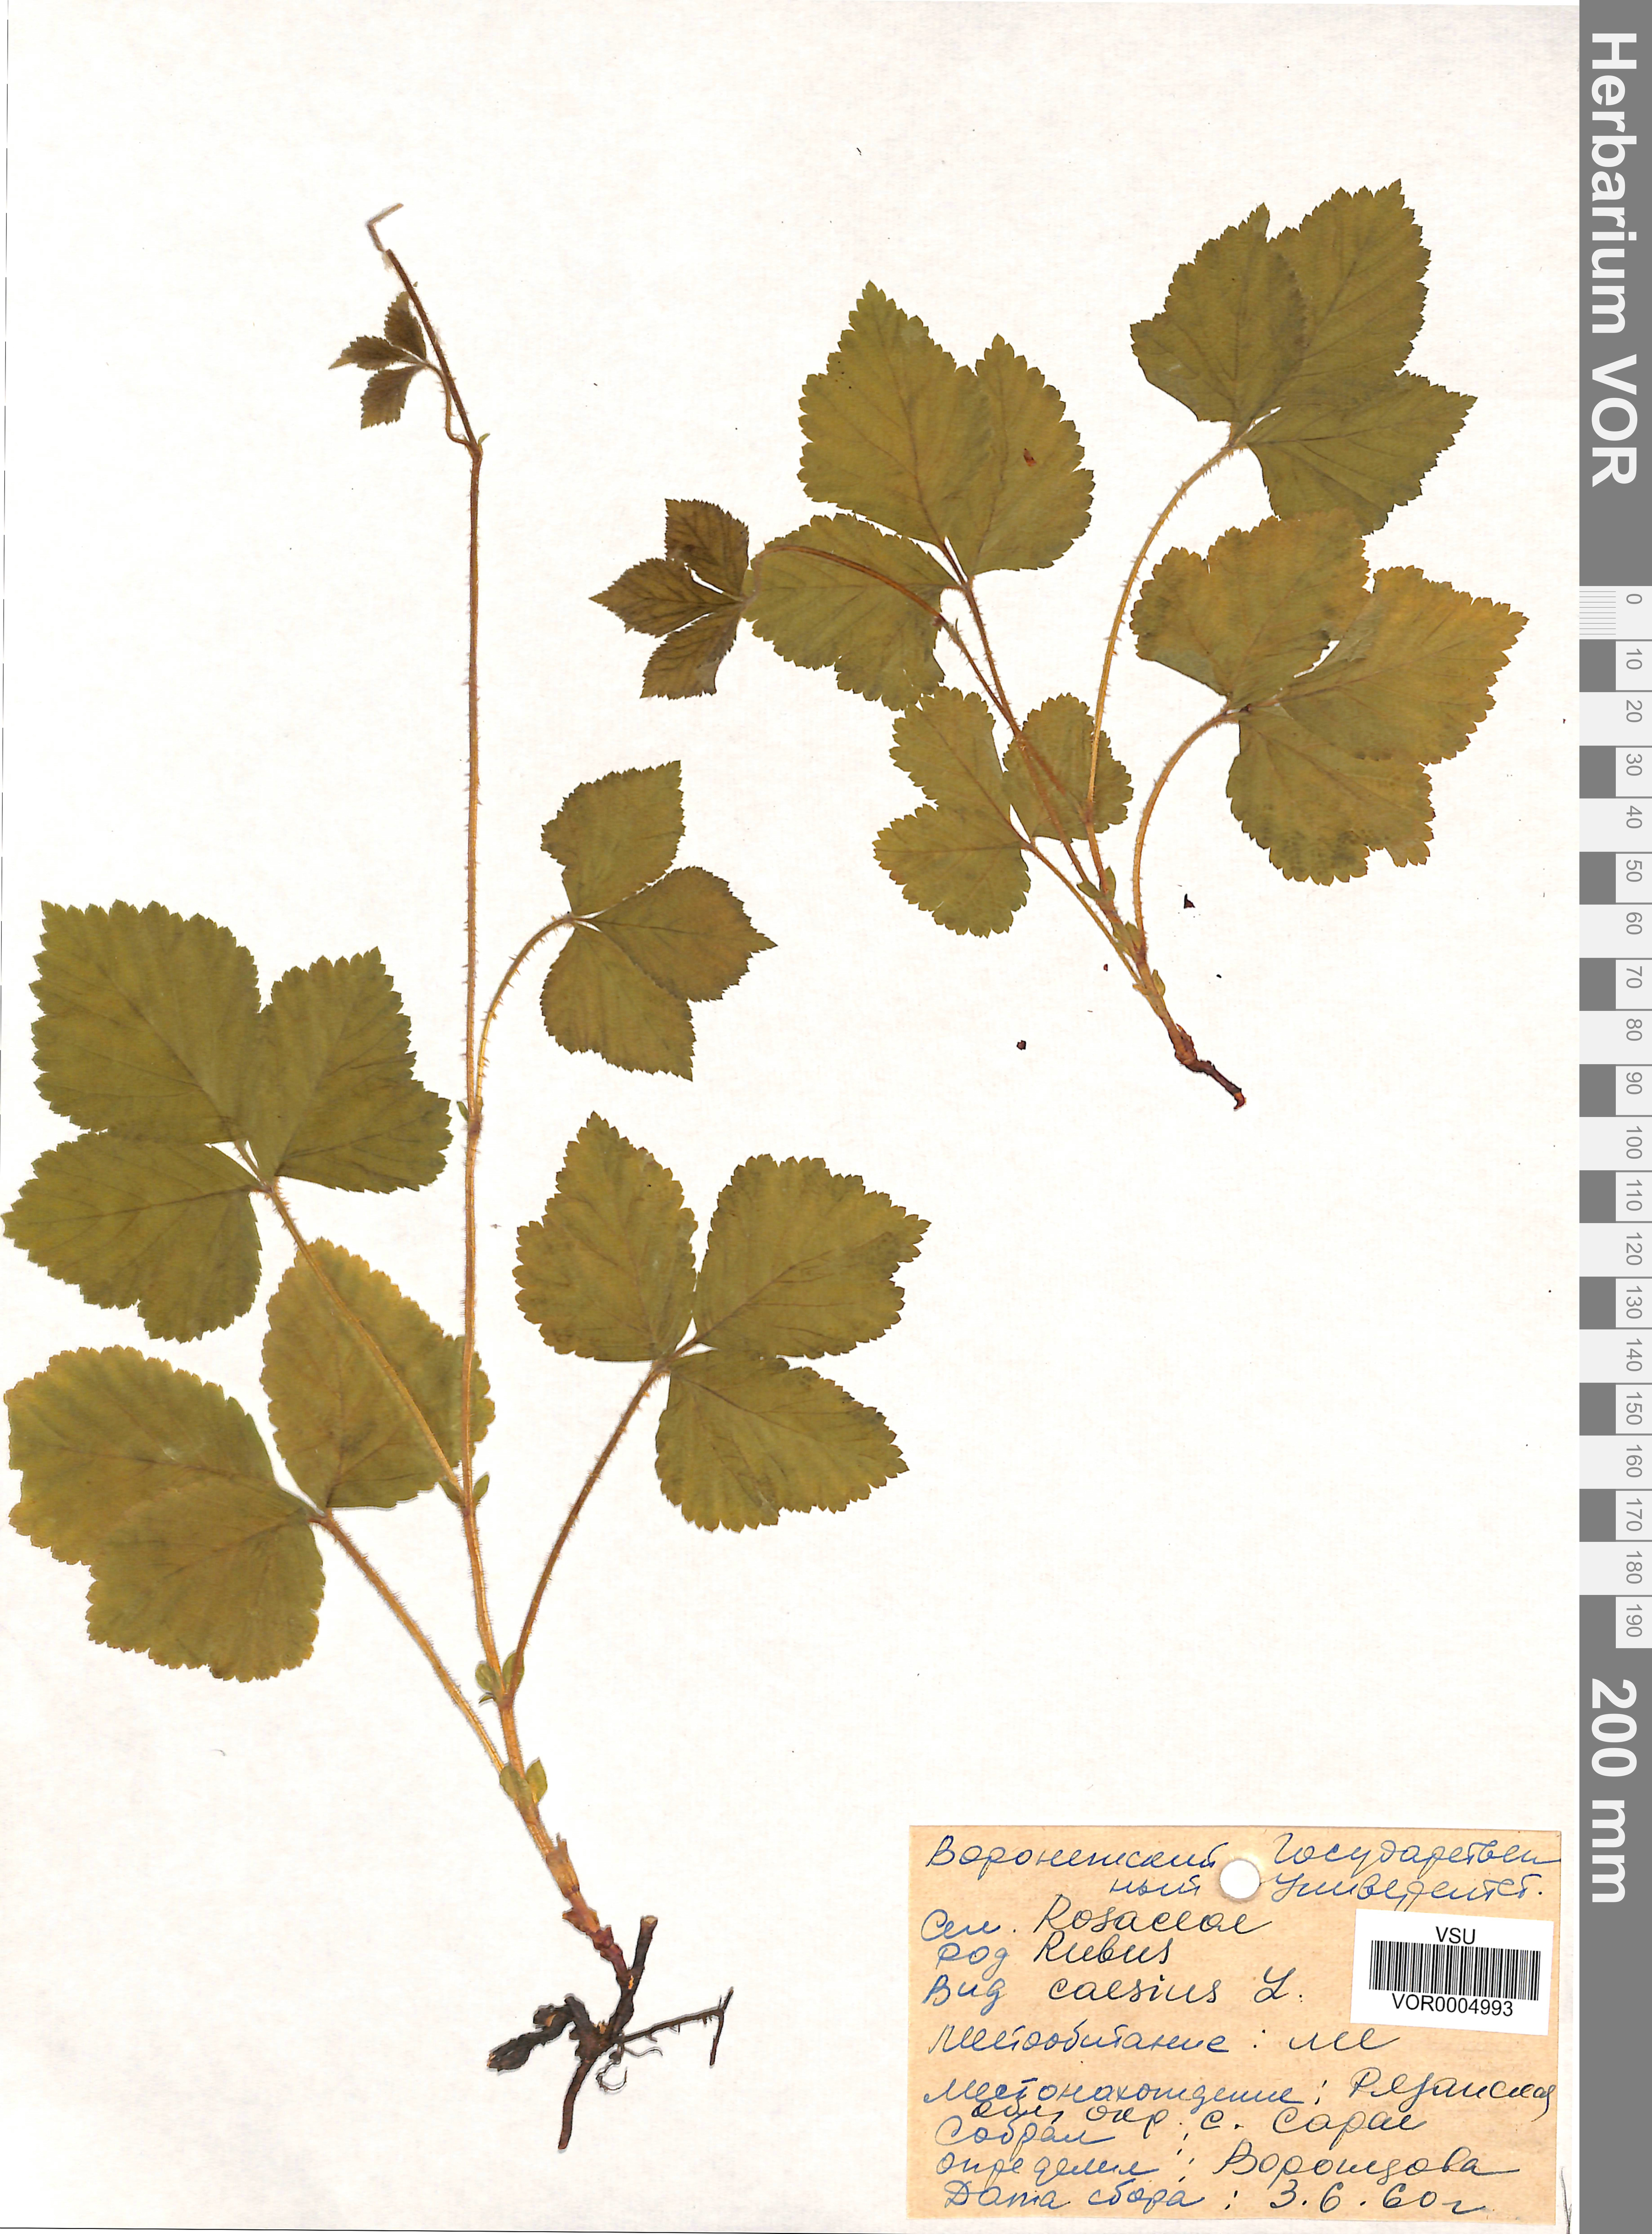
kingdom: Plantae
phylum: Tracheophyta
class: Magnoliopsida
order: Rosales
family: Rosaceae
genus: Rubus
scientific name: Rubus caesius
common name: Dewberry
